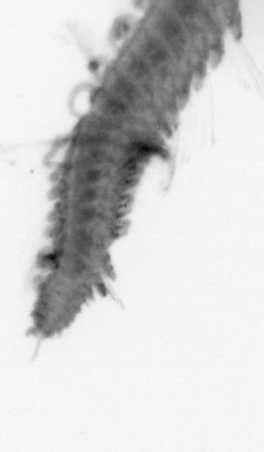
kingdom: Animalia
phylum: Annelida
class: Polychaeta
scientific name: Polychaeta
